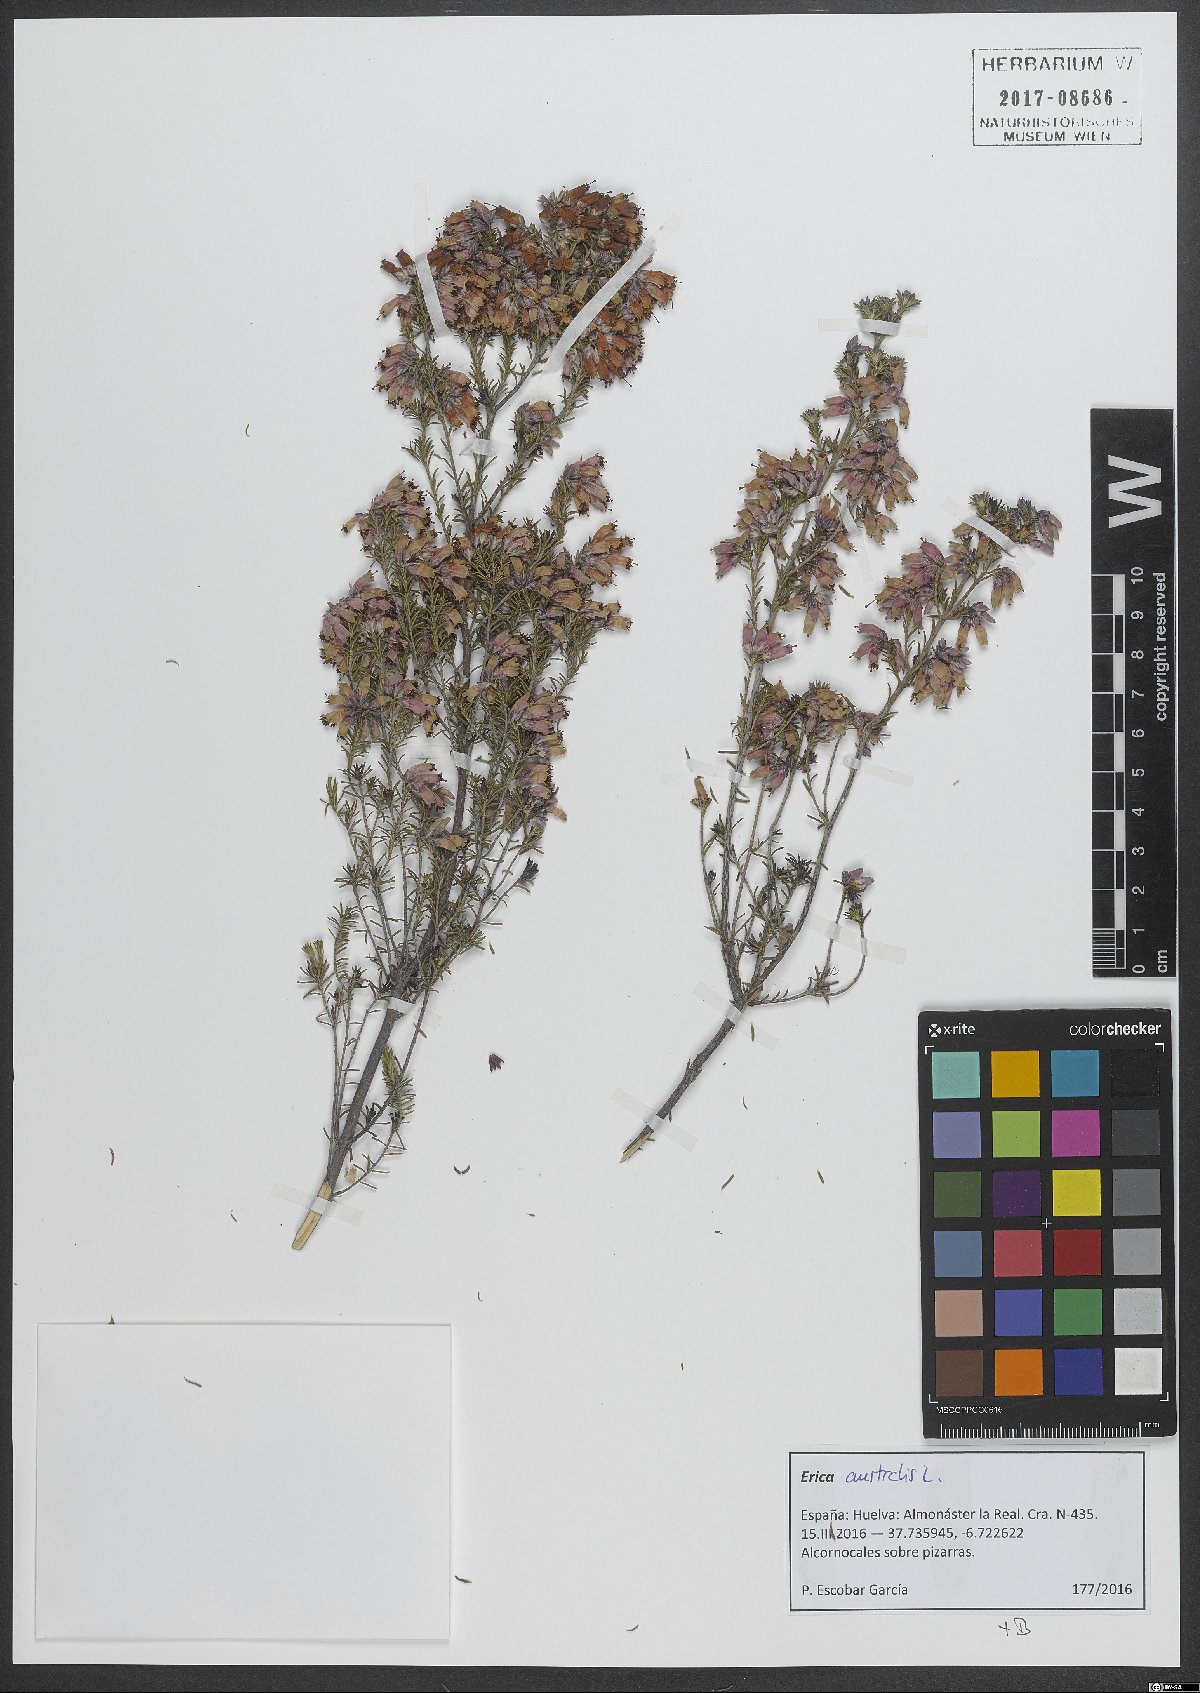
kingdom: Plantae
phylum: Tracheophyta
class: Magnoliopsida
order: Ericales
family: Ericaceae
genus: Erica
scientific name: Erica australis
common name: Spanish heath
